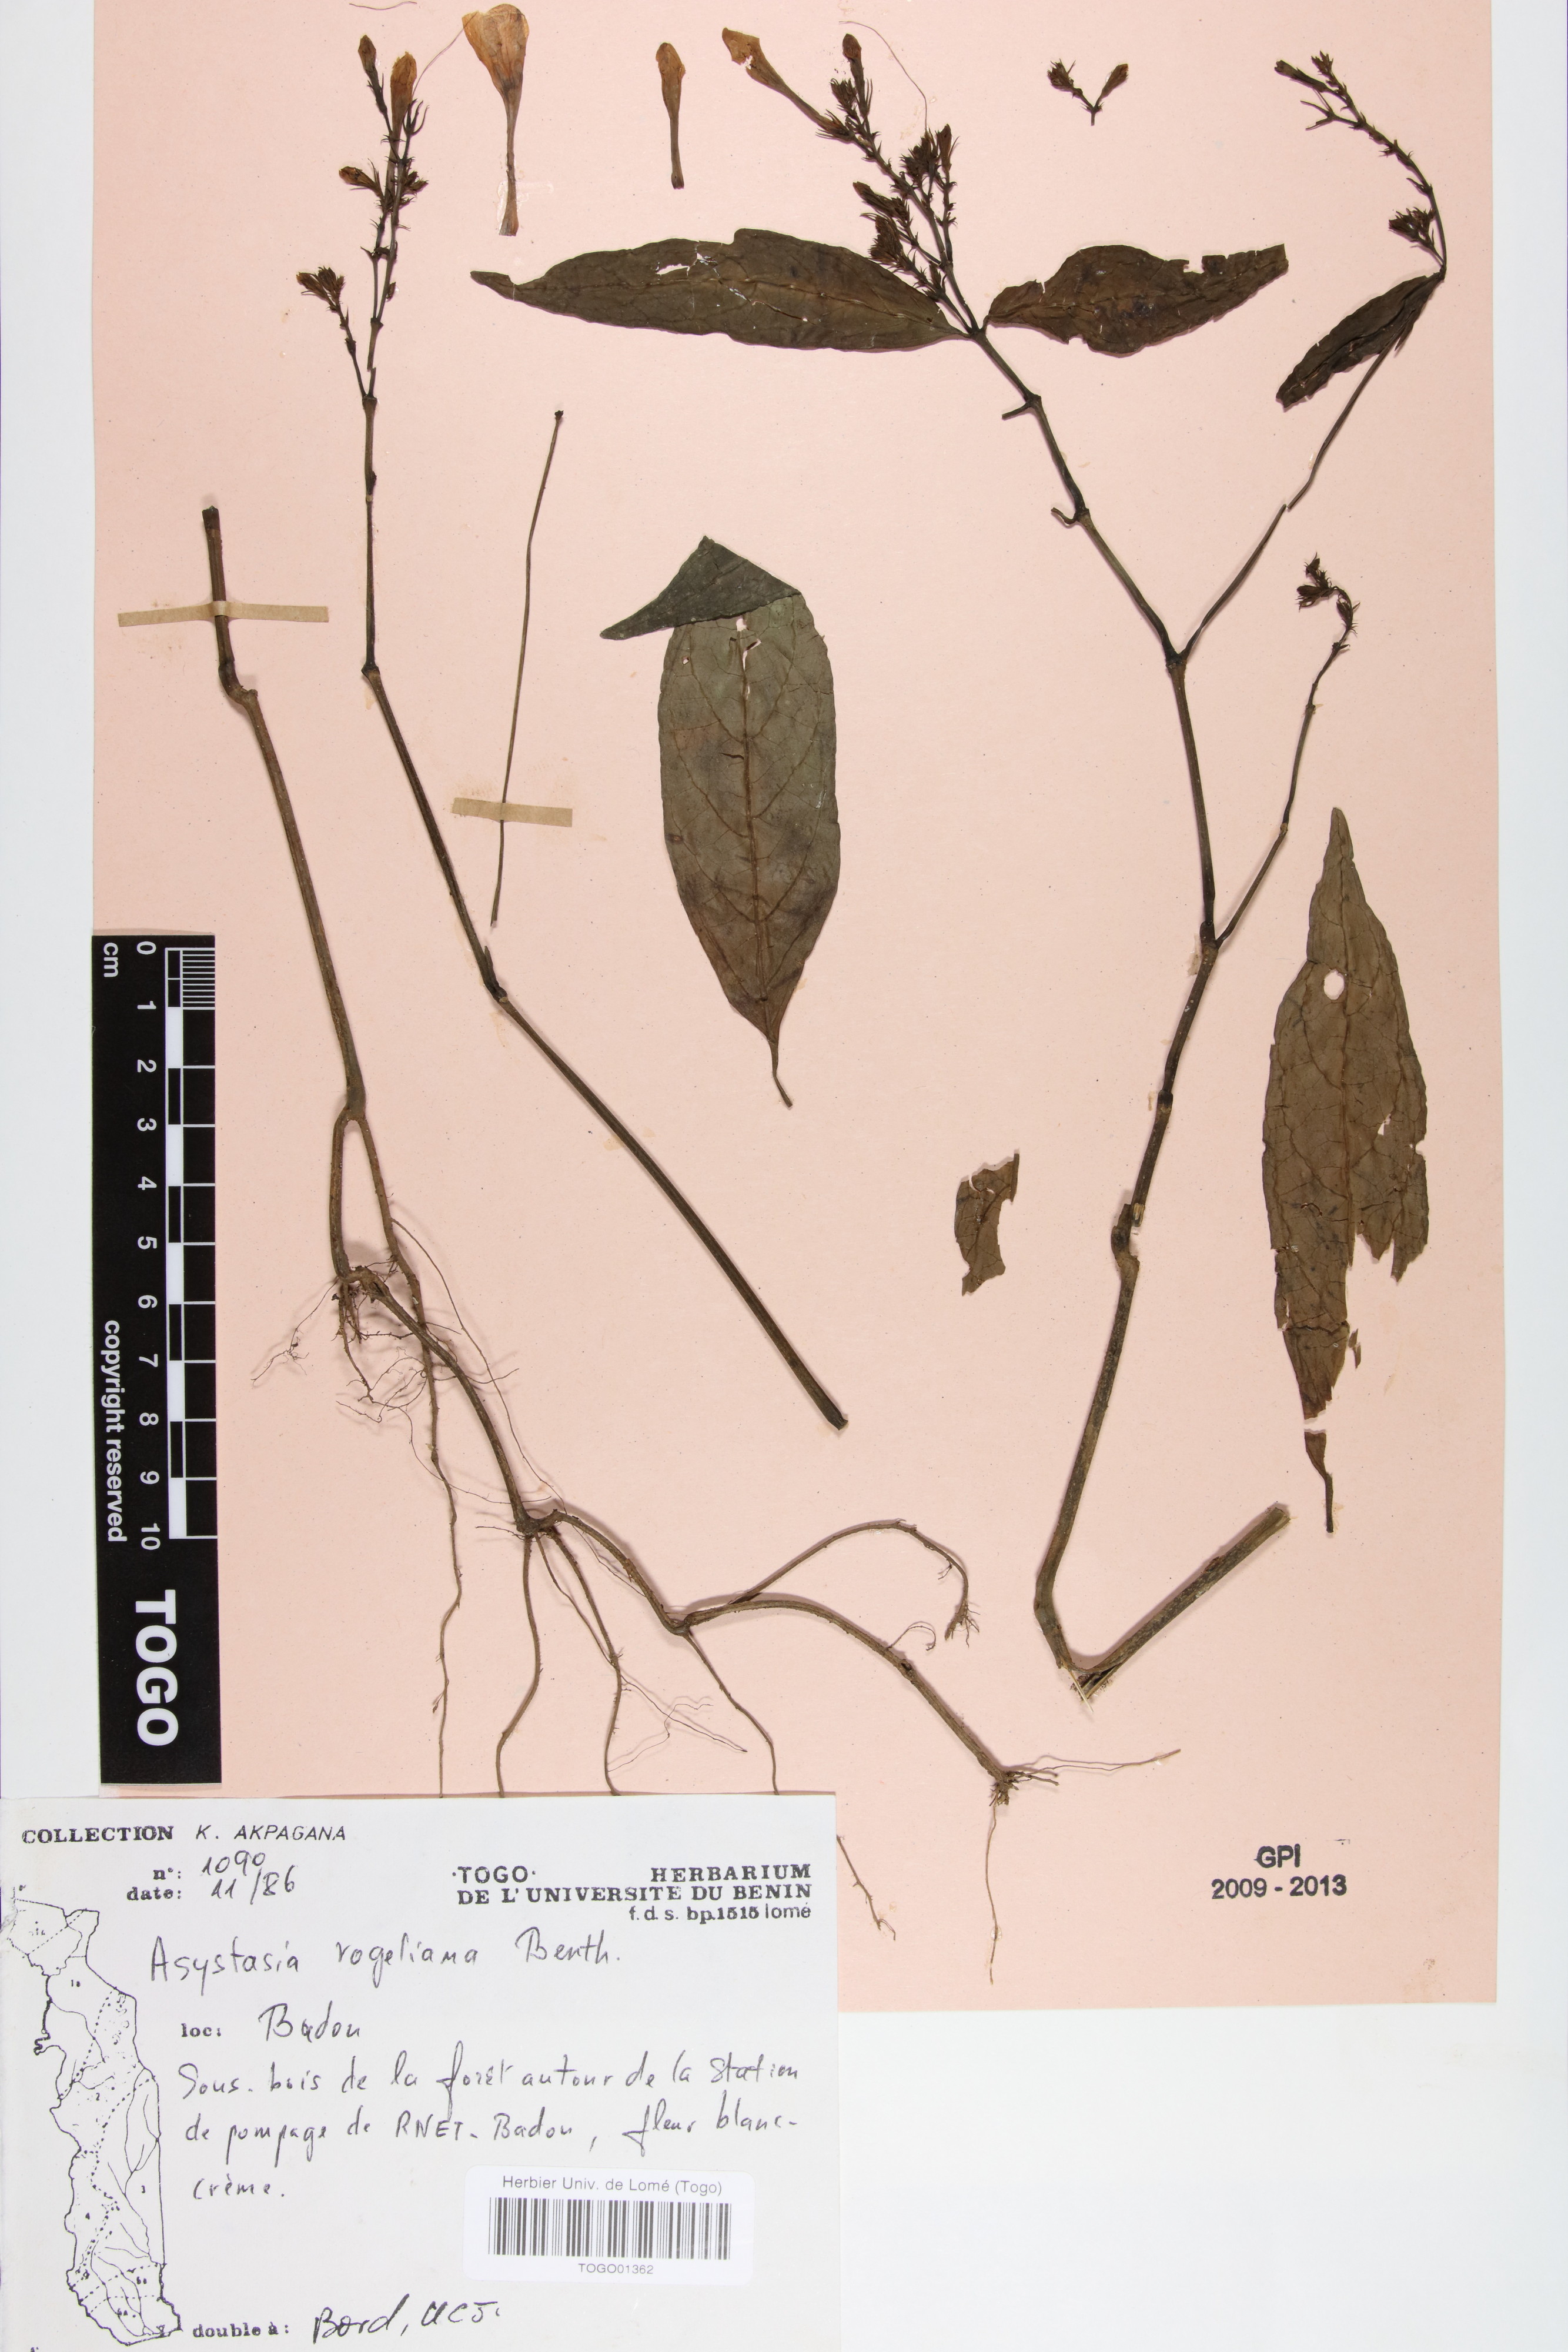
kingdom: Plantae
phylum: Tracheophyta
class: Magnoliopsida
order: Lamiales
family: Acanthaceae
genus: Asystasia
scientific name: Asystasia vogeliana
